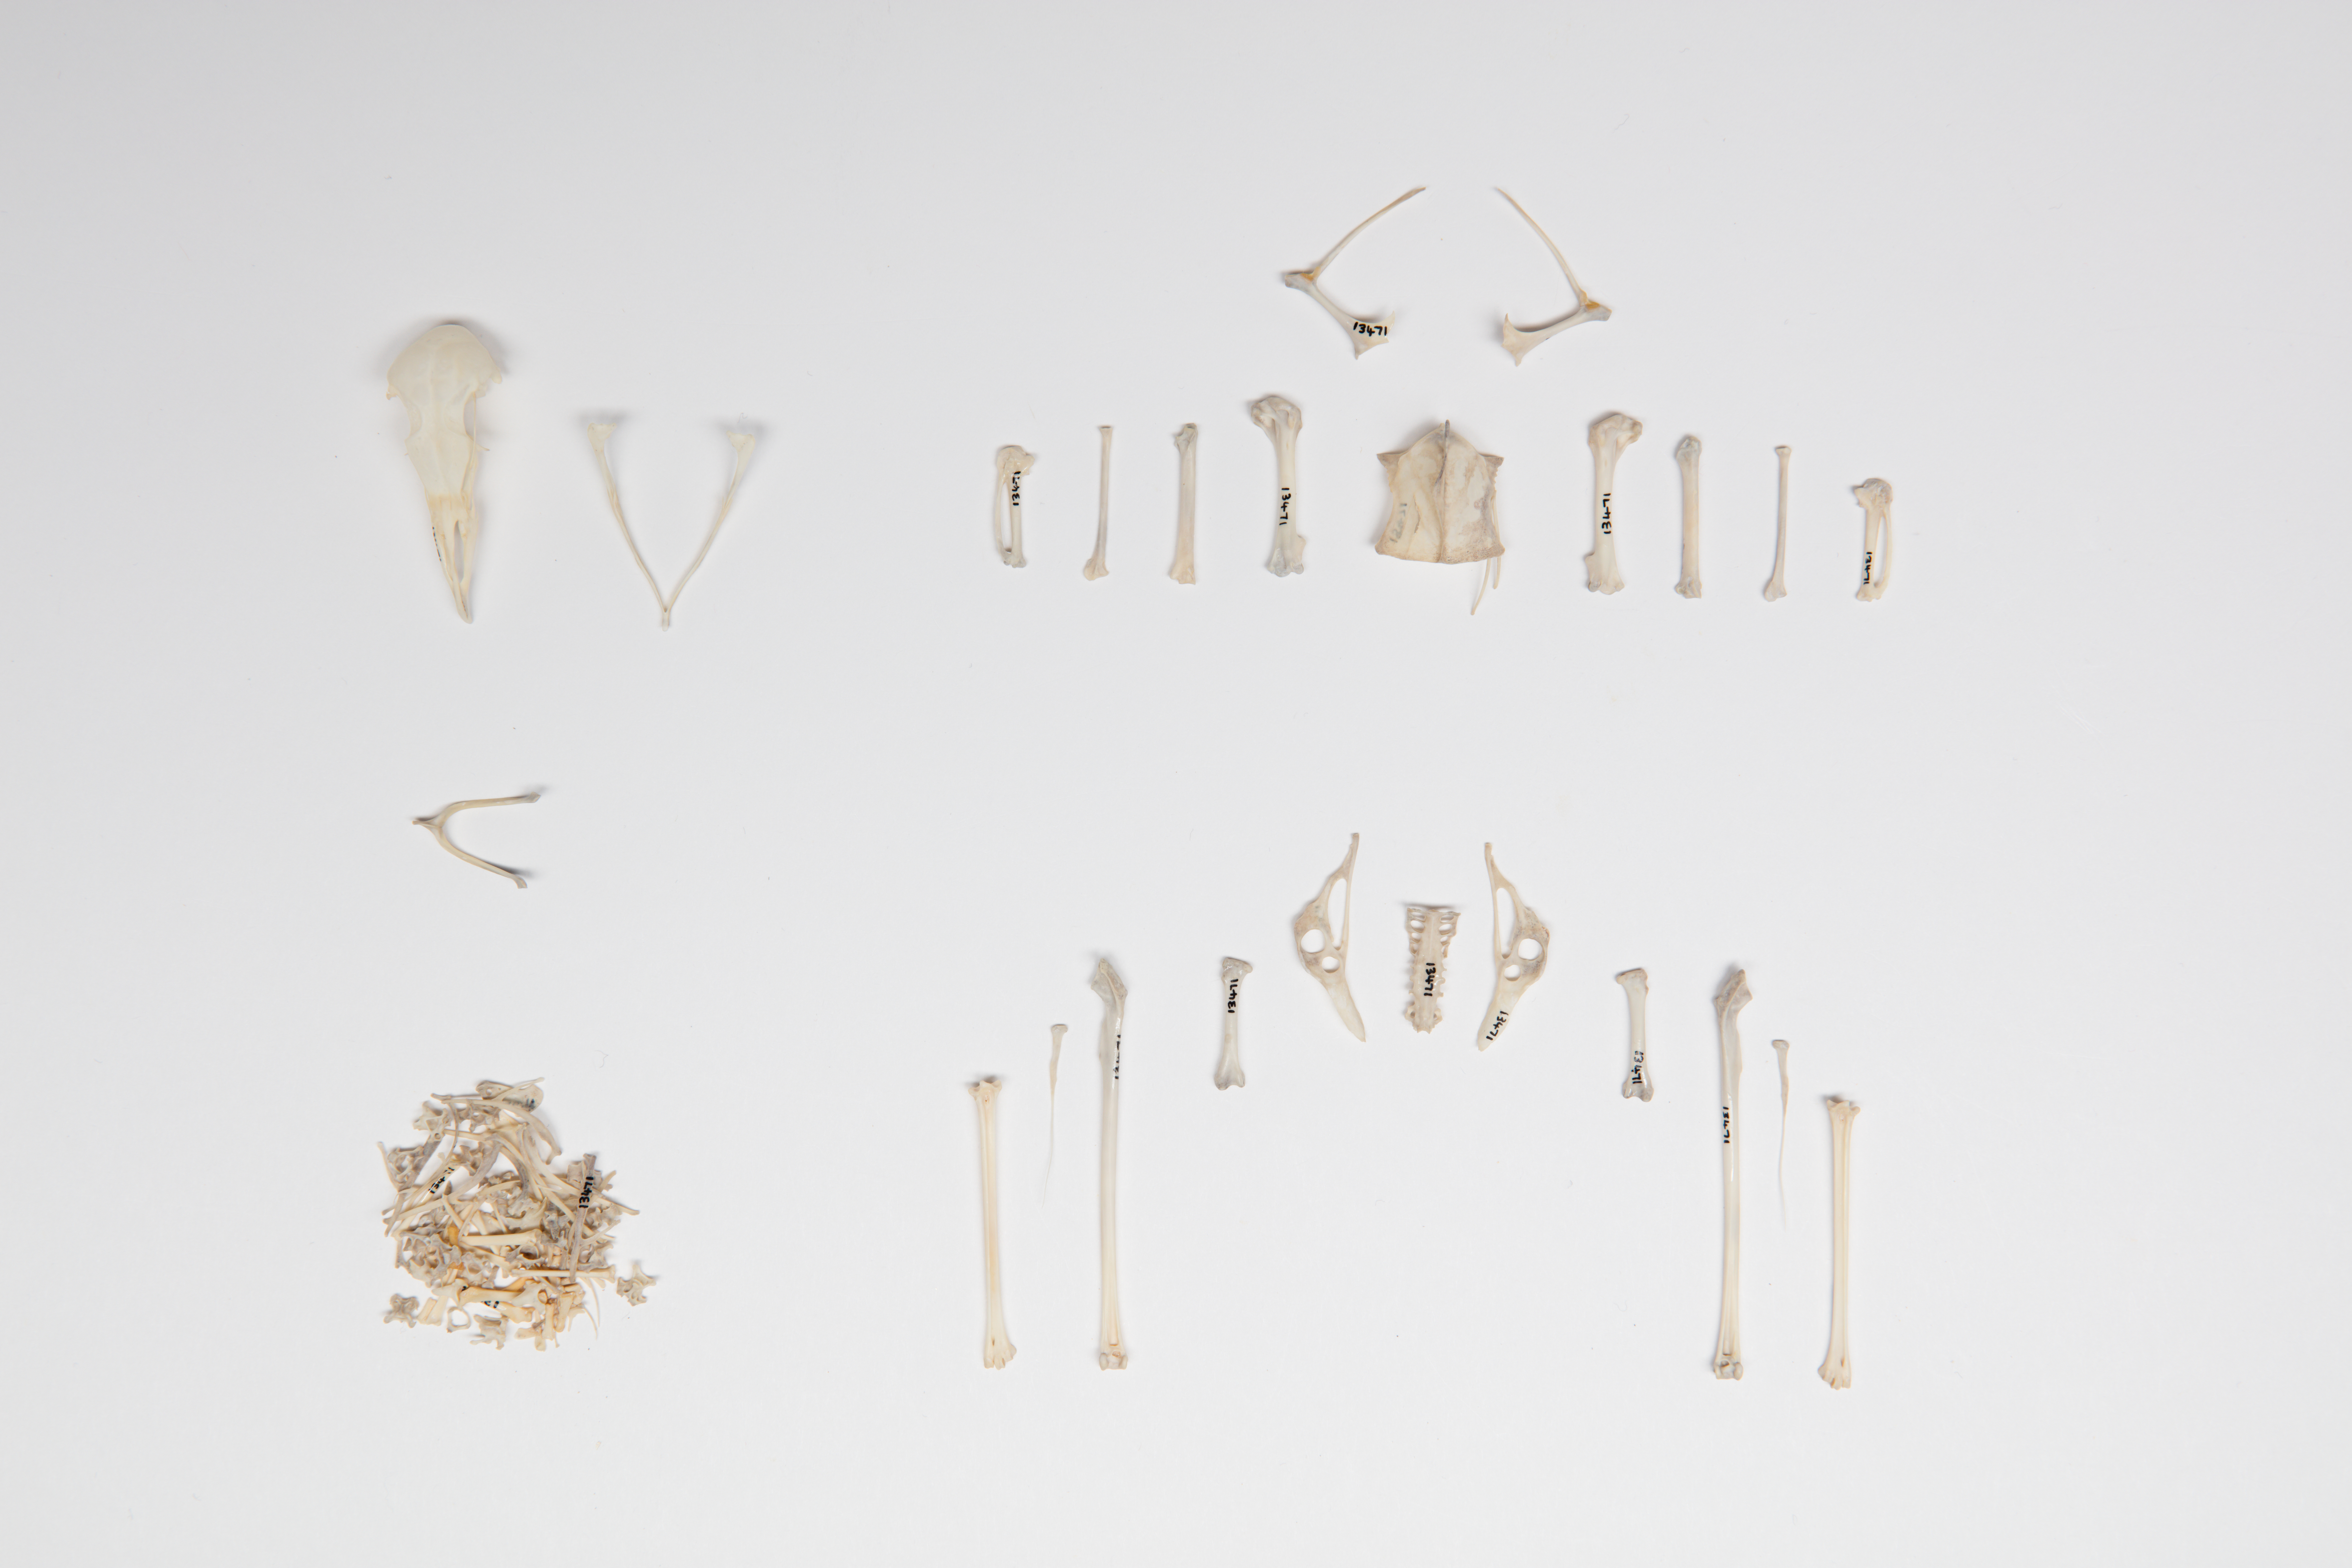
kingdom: Animalia
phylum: Chordata
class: Aves
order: Procellariiformes
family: Hydrobatidae
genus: Fregetta
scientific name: Fregetta tropica
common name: Black-bellied storm-petrel
